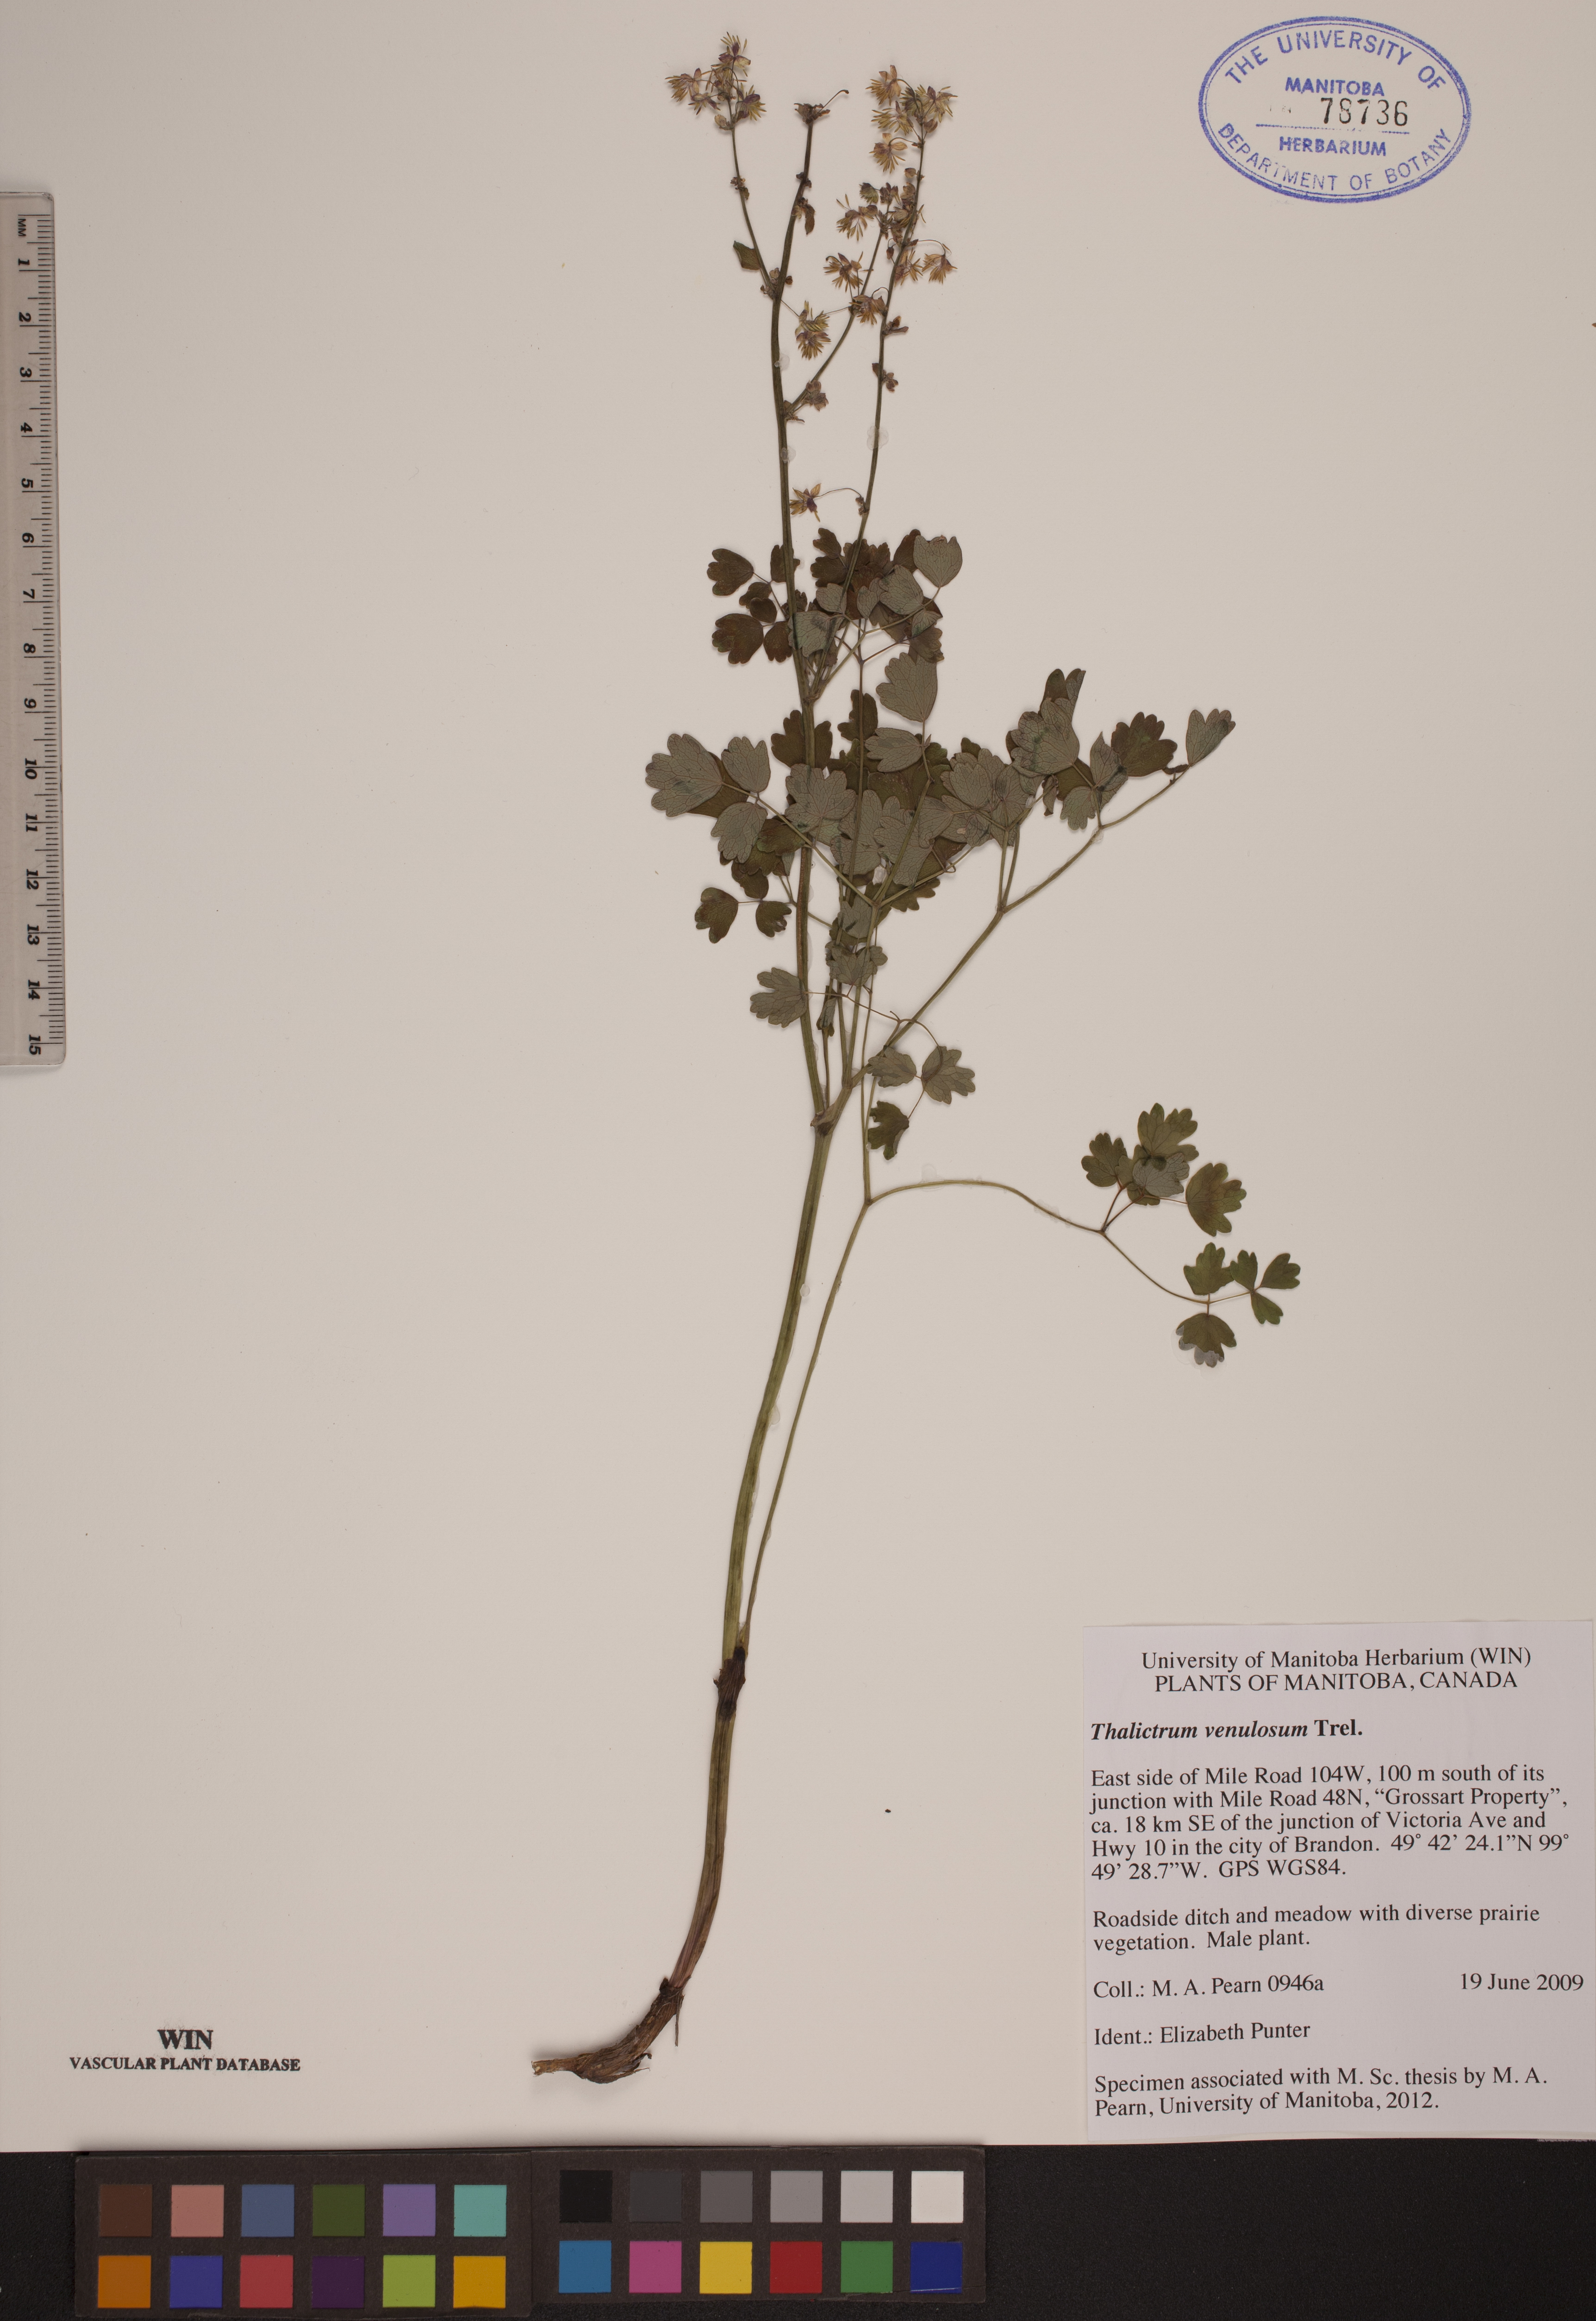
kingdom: Plantae
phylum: Tracheophyta
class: Magnoliopsida
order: Ranunculales
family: Ranunculaceae
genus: Thalictrum
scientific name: Thalictrum venulosum
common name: Early meadow-rue
